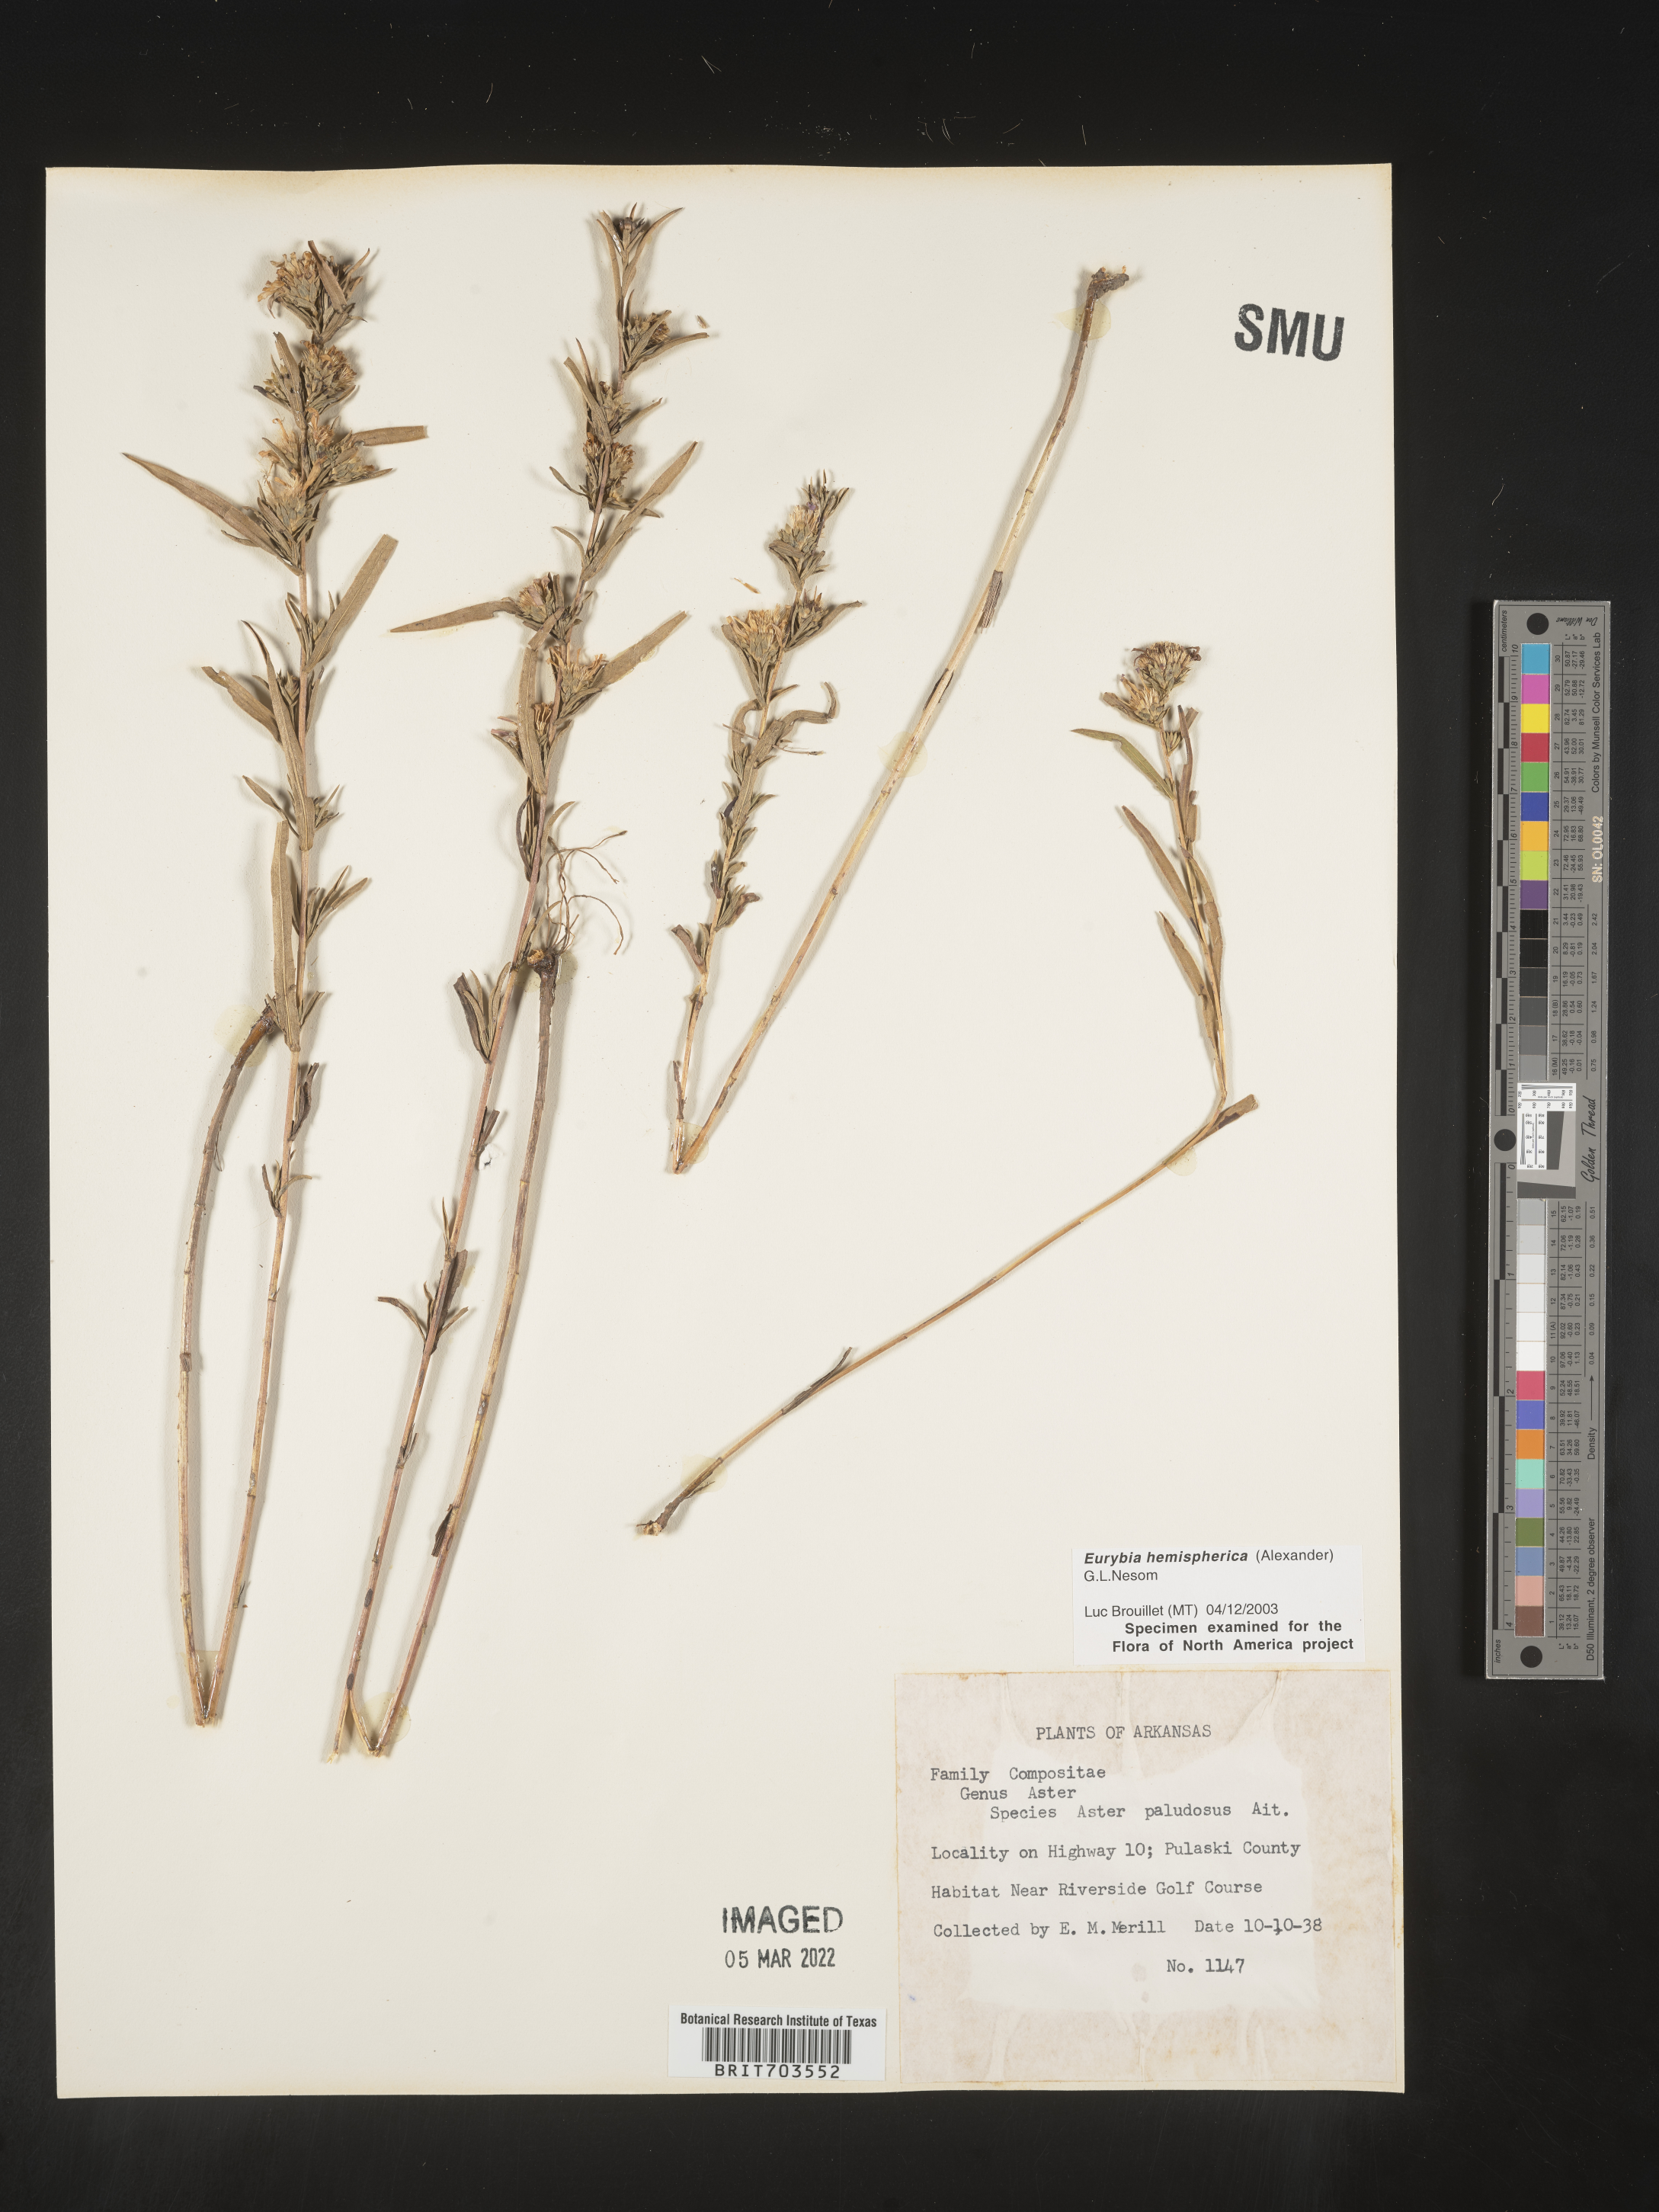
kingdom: Plantae
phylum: Tracheophyta
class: Magnoliopsida
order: Asterales
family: Asteraceae
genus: Eurybia
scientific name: Eurybia hemispherica
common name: Showy aster
